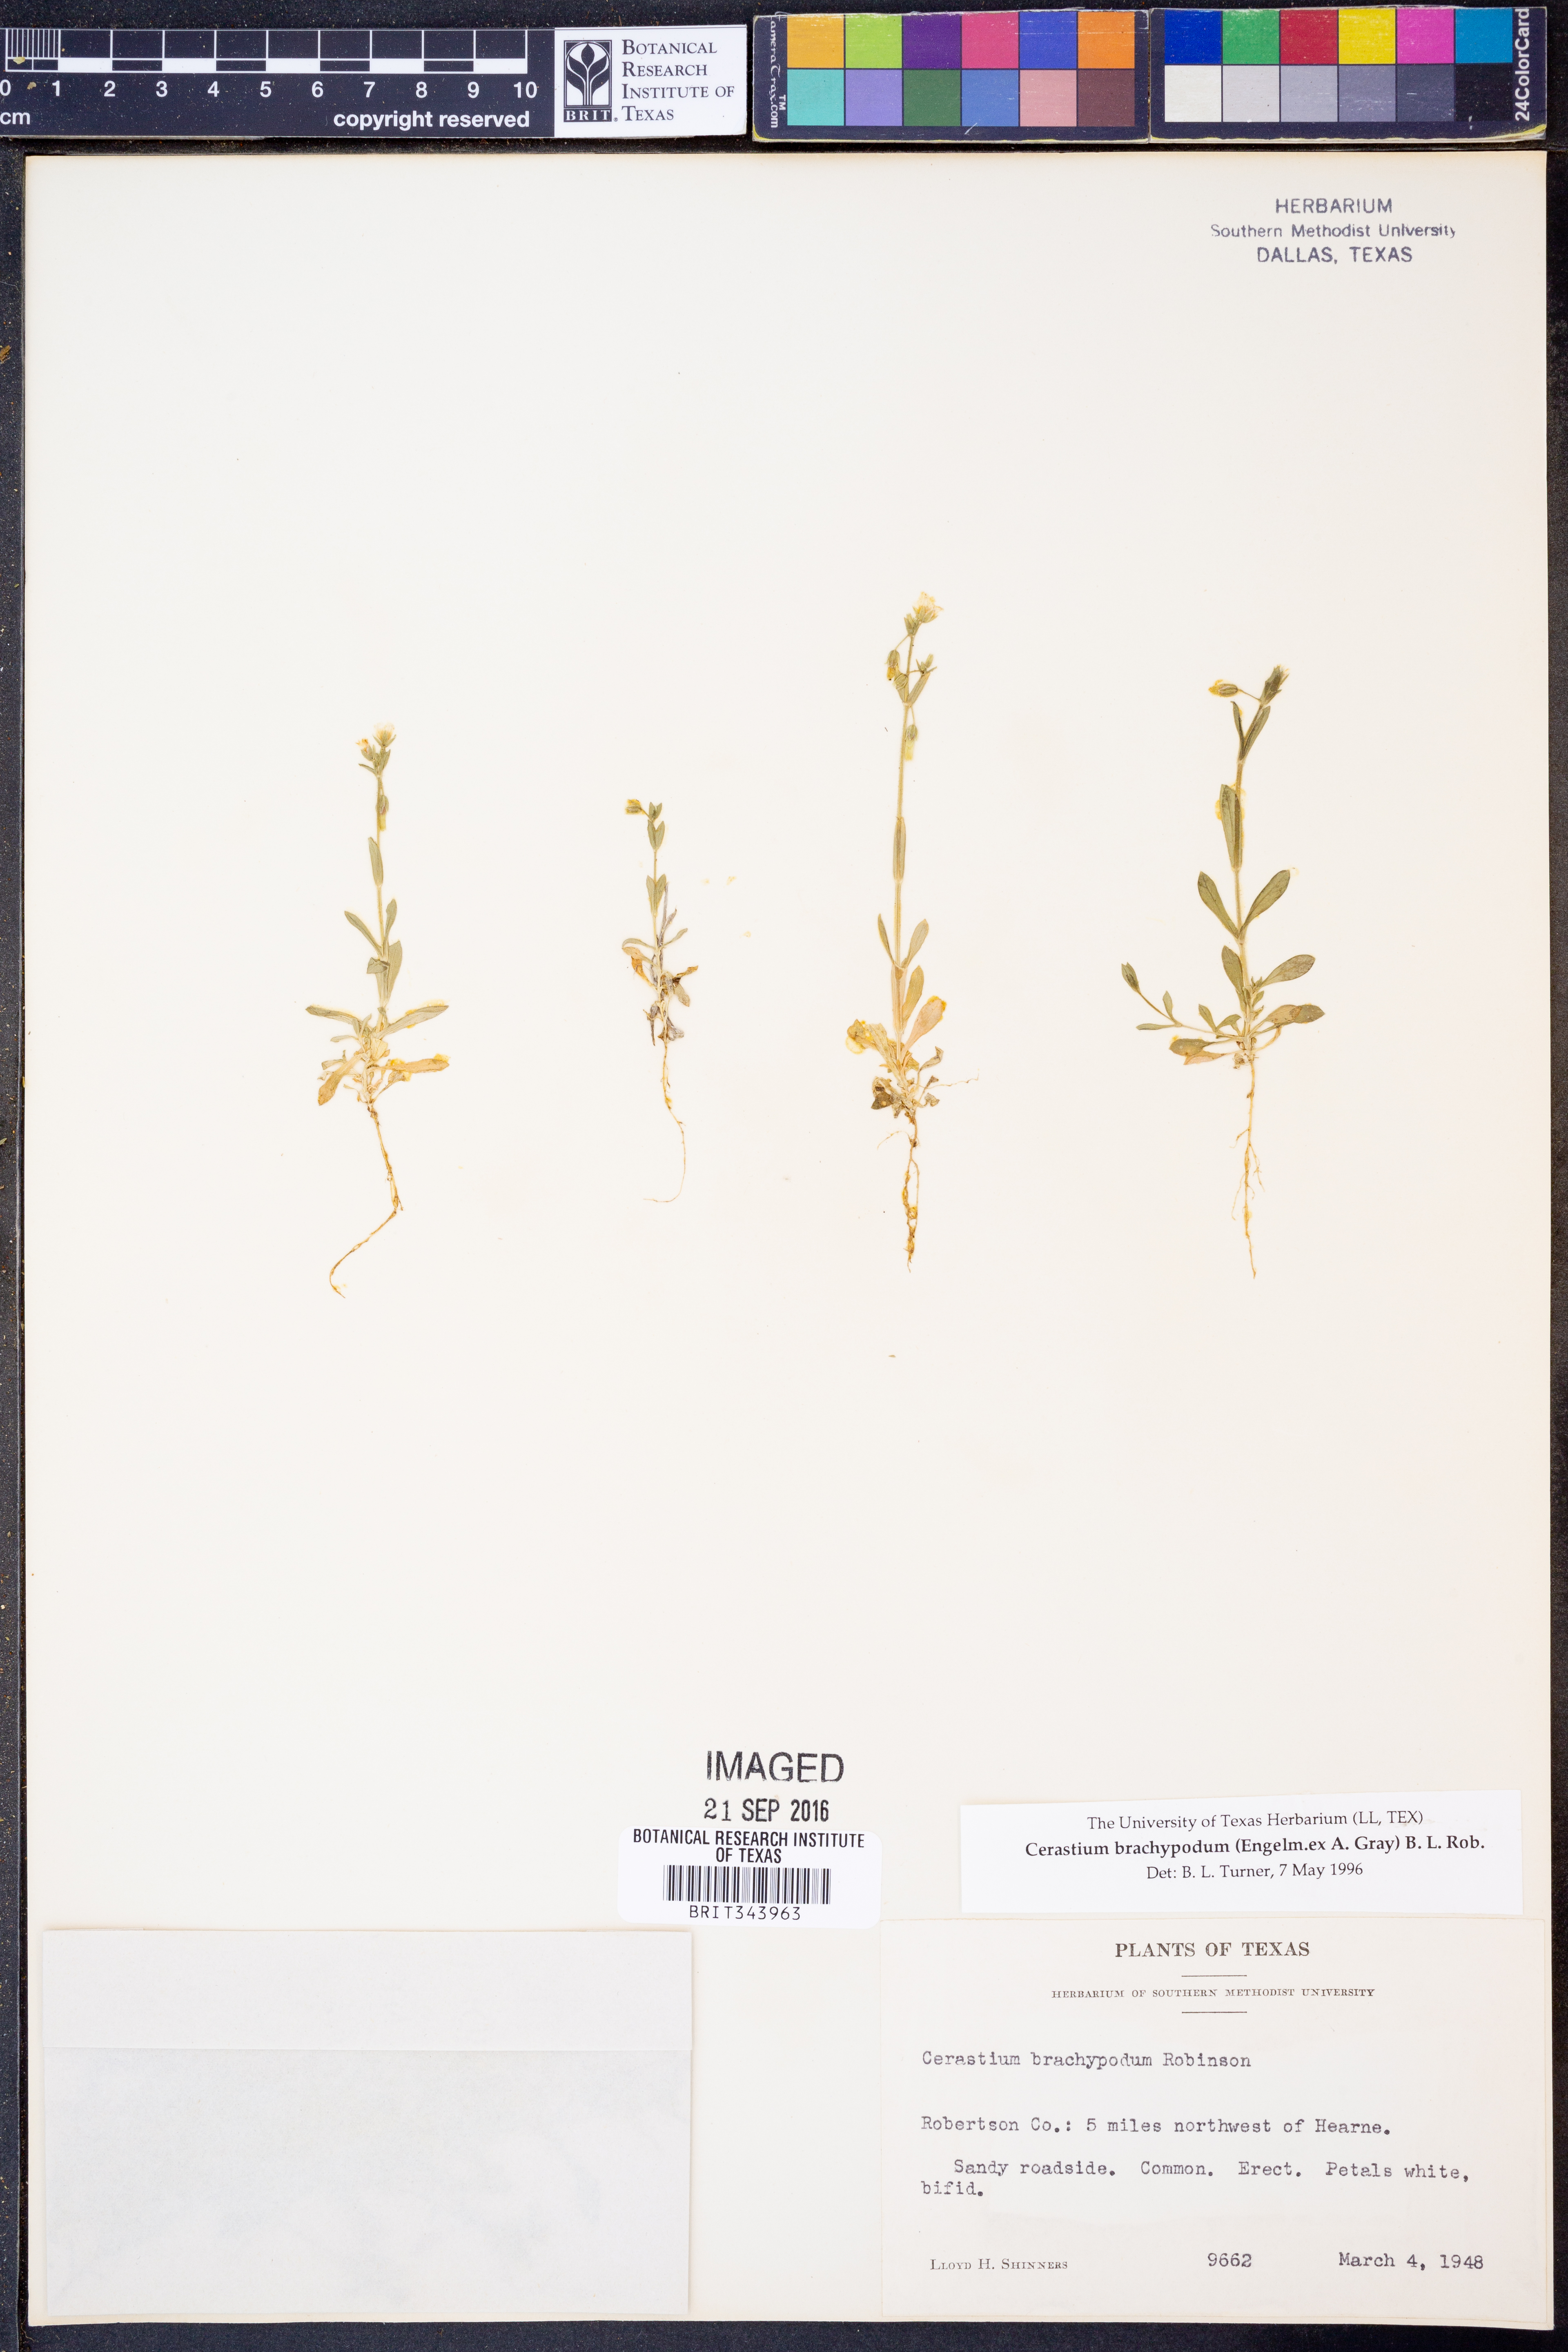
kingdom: Plantae
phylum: Tracheophyta
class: Magnoliopsida
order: Caryophyllales
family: Caryophyllaceae
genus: Cerastium
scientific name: Cerastium brachypodum
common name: Short-pedicelled nodding chickweed
